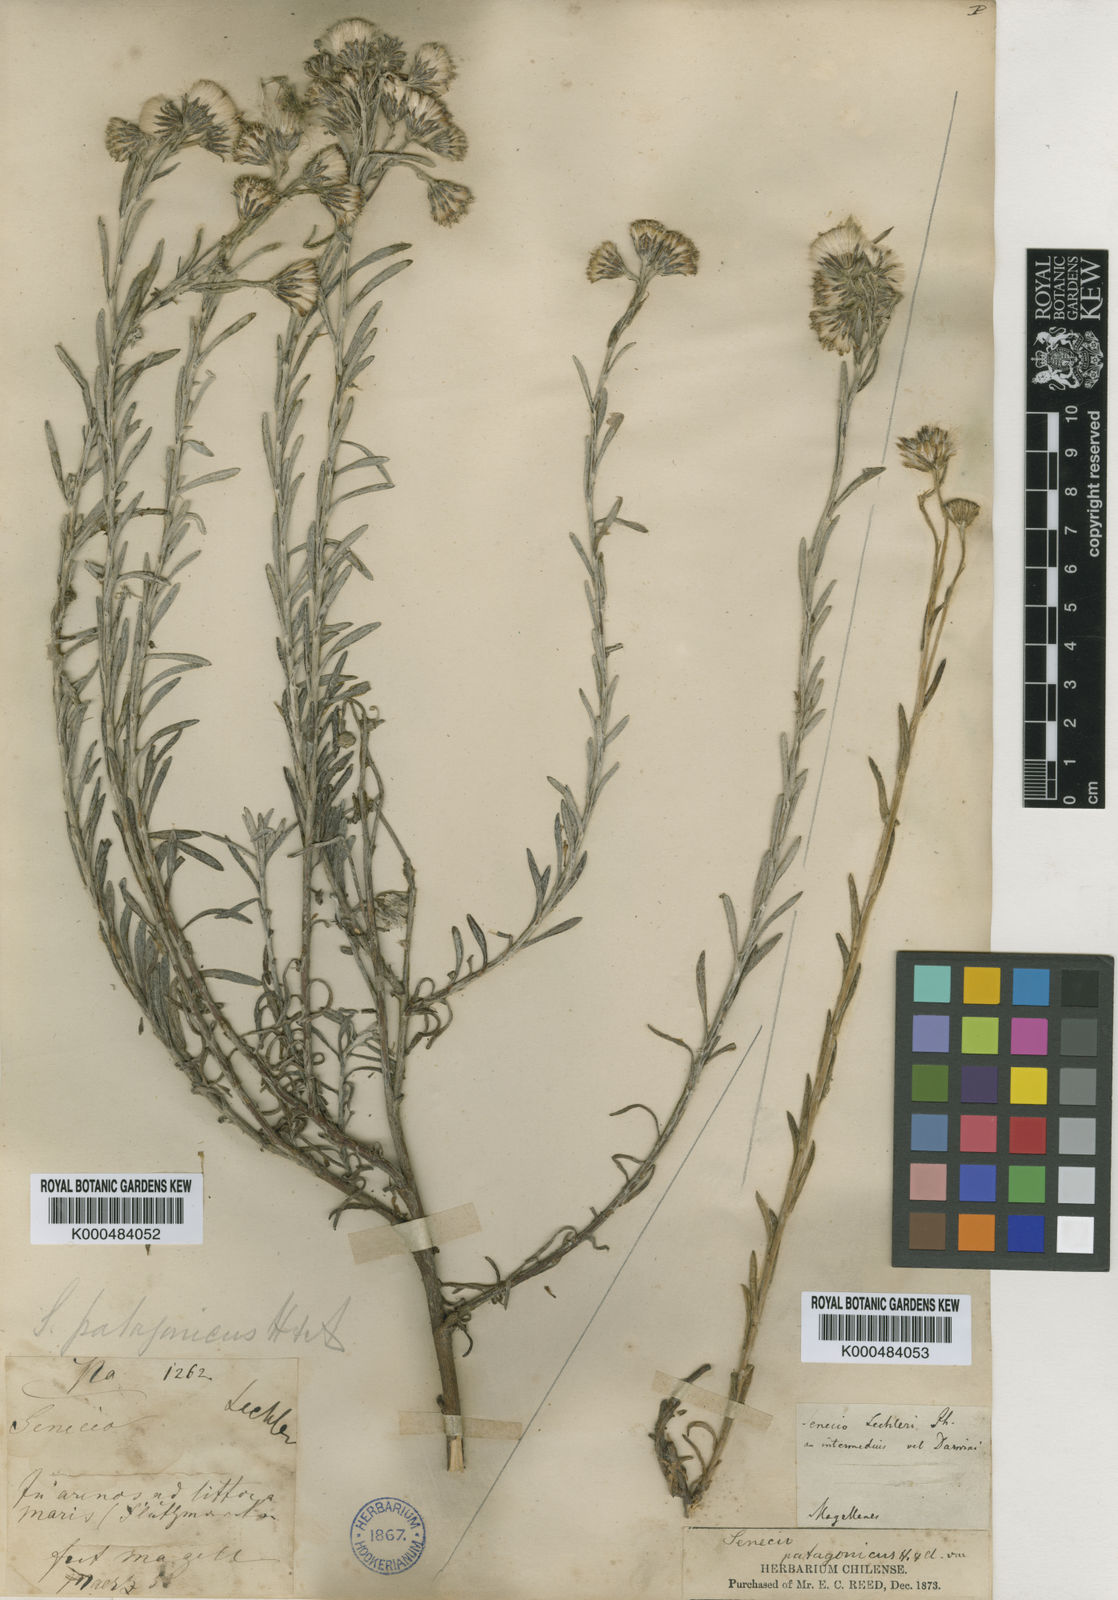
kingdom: Plantae
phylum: Tracheophyta
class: Magnoliopsida
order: Asterales
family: Asteraceae
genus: Senecio
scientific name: Senecio patagonicus
